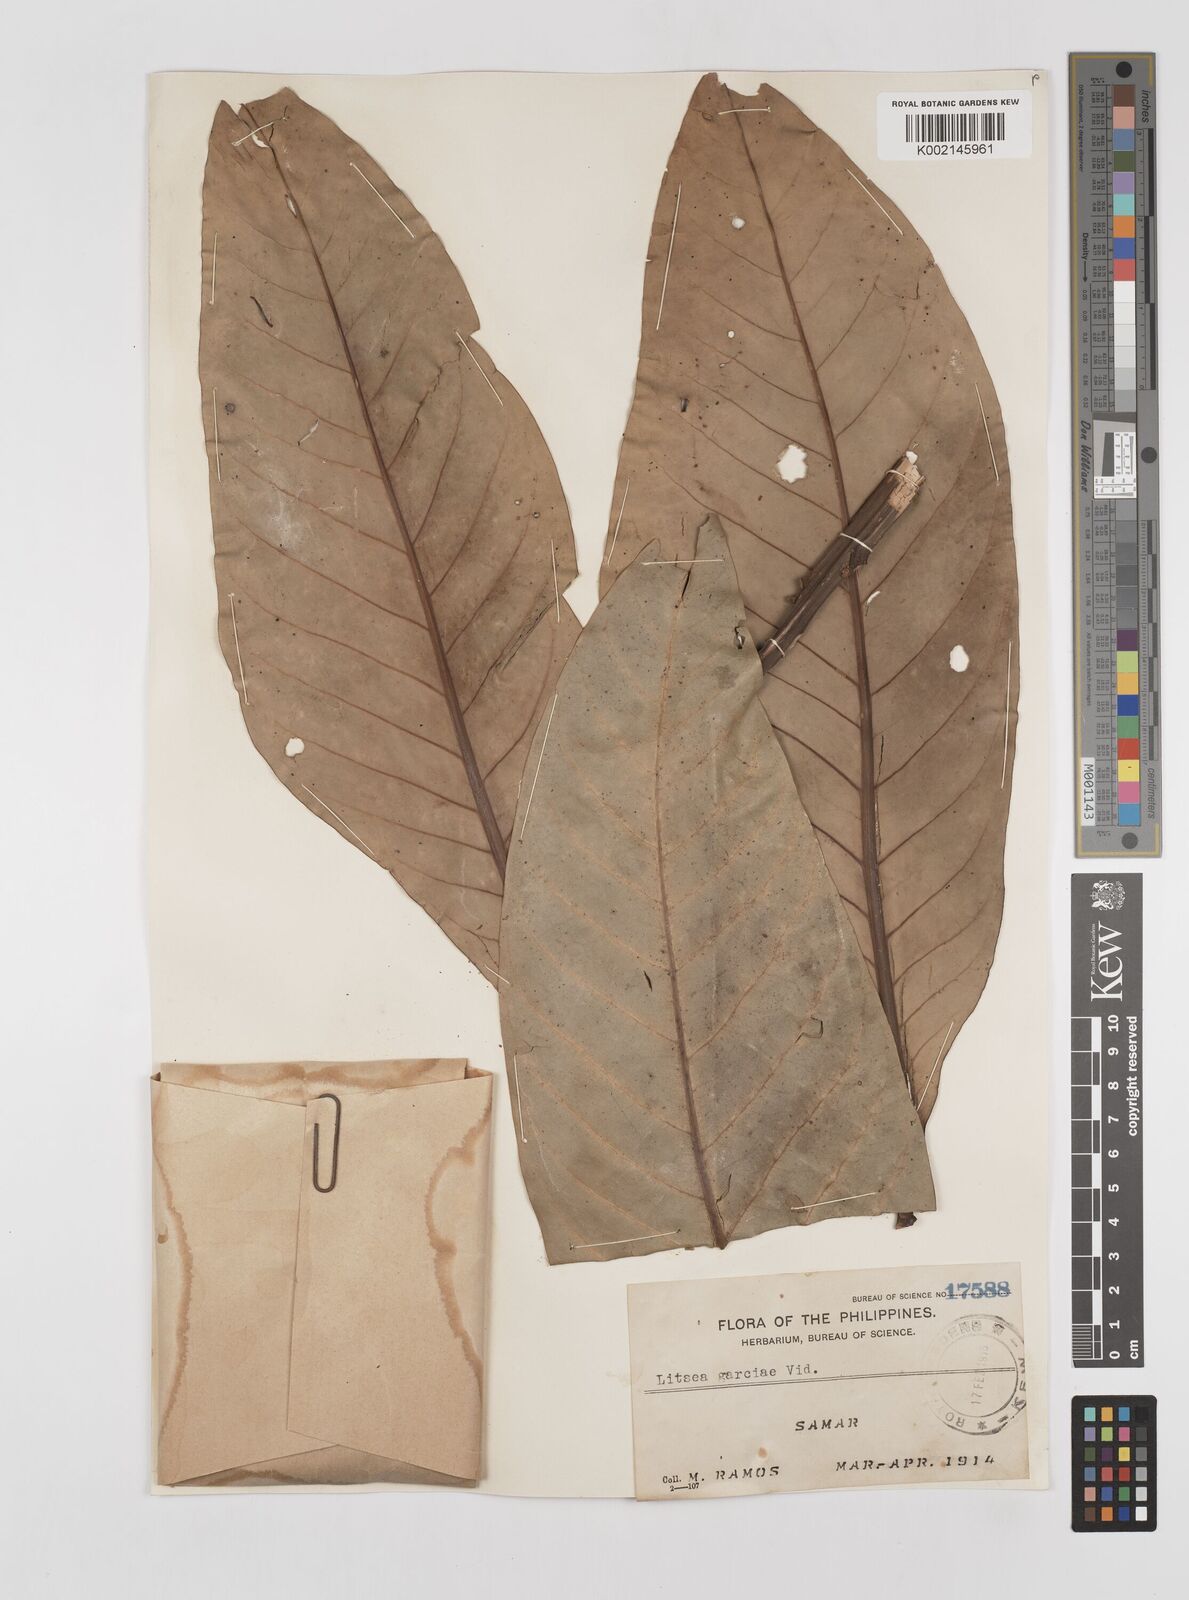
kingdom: Plantae
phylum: Tracheophyta
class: Magnoliopsida
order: Laurales
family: Lauraceae
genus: Litsea
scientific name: Litsea garciae
